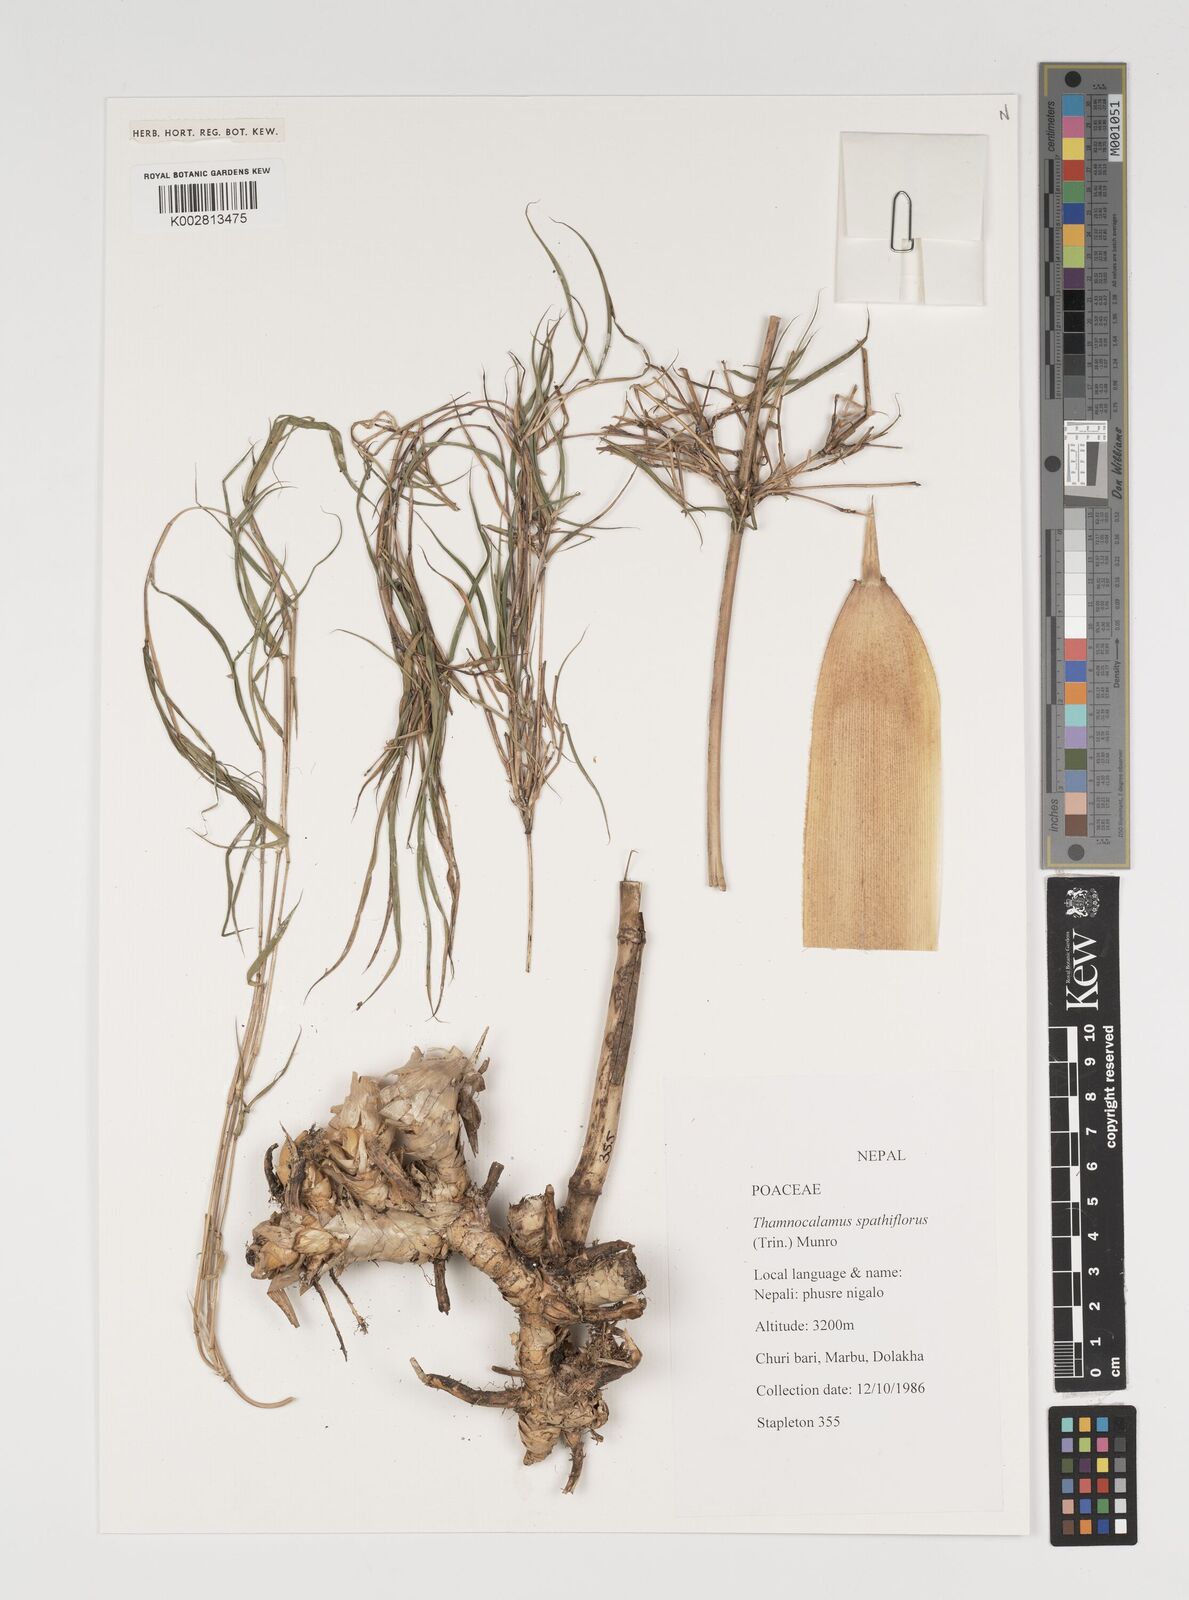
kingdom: Plantae
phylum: Tracheophyta
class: Liliopsida
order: Poales
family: Poaceae
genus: Thamnocalamus
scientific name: Thamnocalamus spathiflorus
